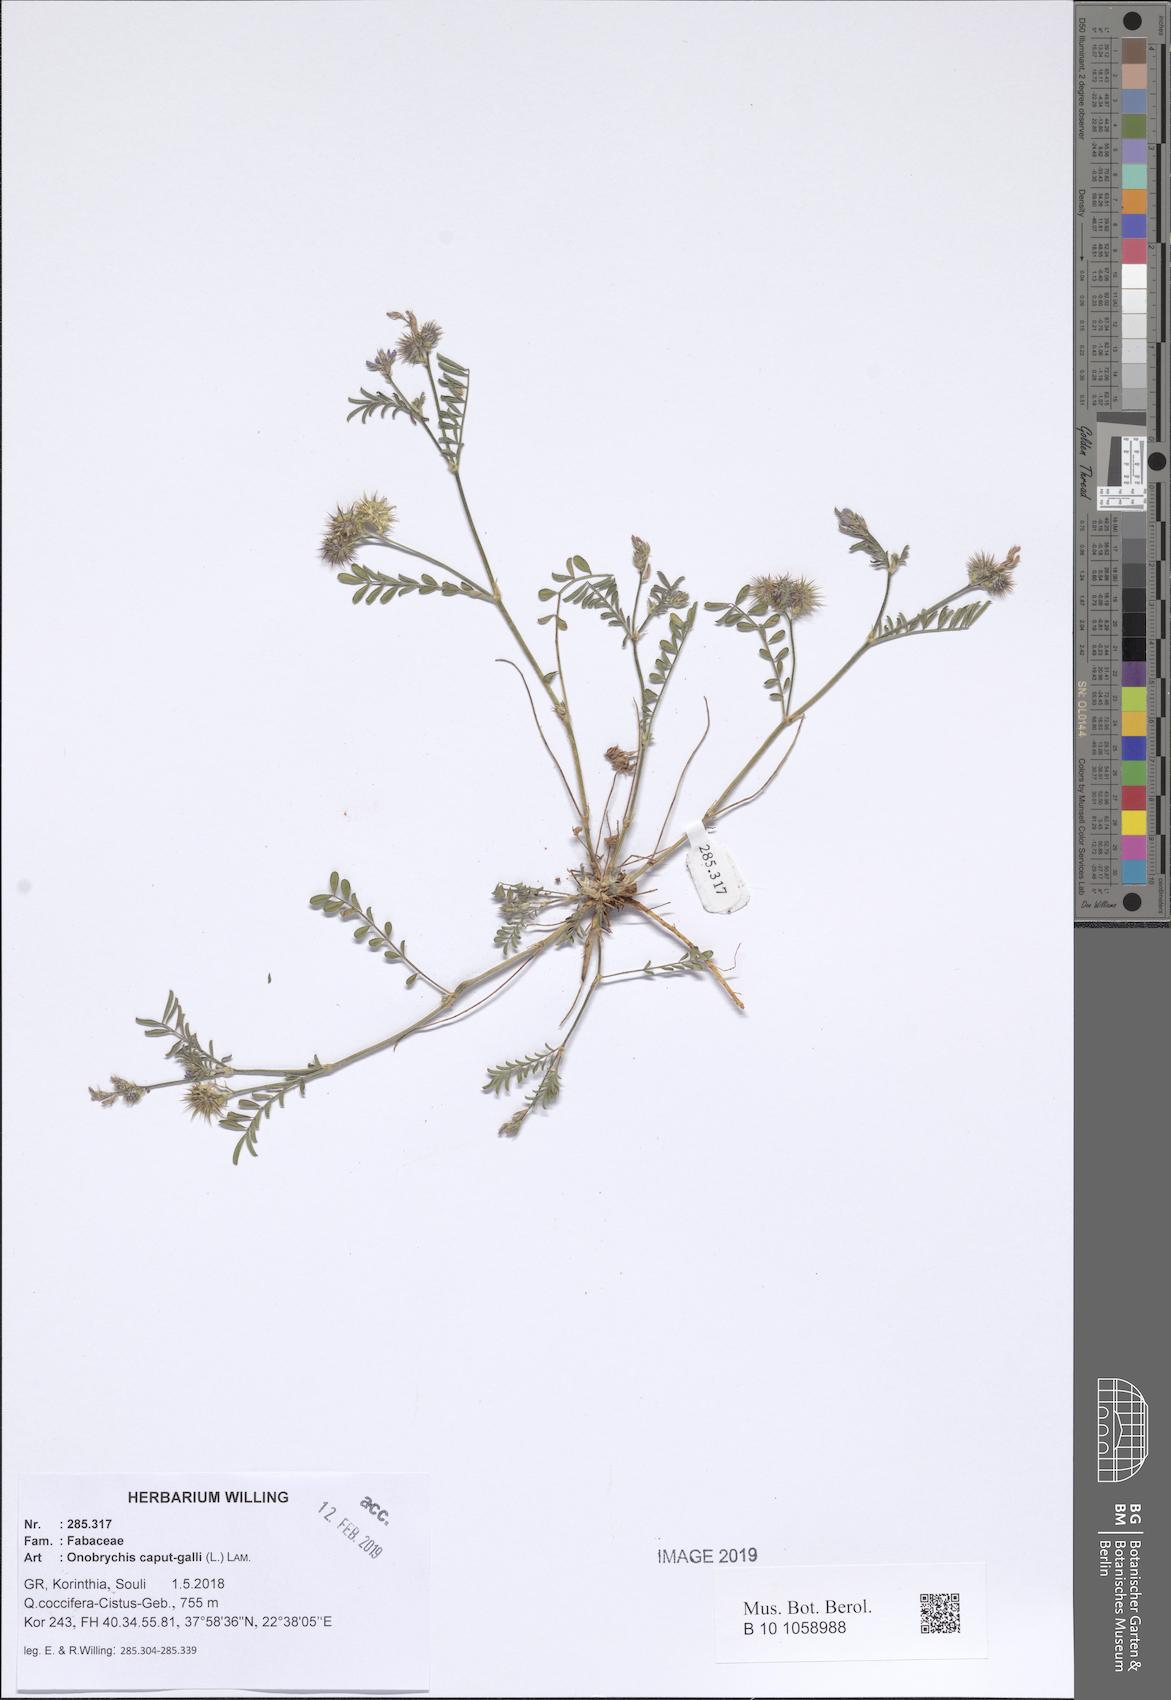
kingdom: Plantae
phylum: Tracheophyta
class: Magnoliopsida
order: Fabales
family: Fabaceae
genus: Onobrychis
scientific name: Onobrychis caput-galli
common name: Cockscomb sainfoin
